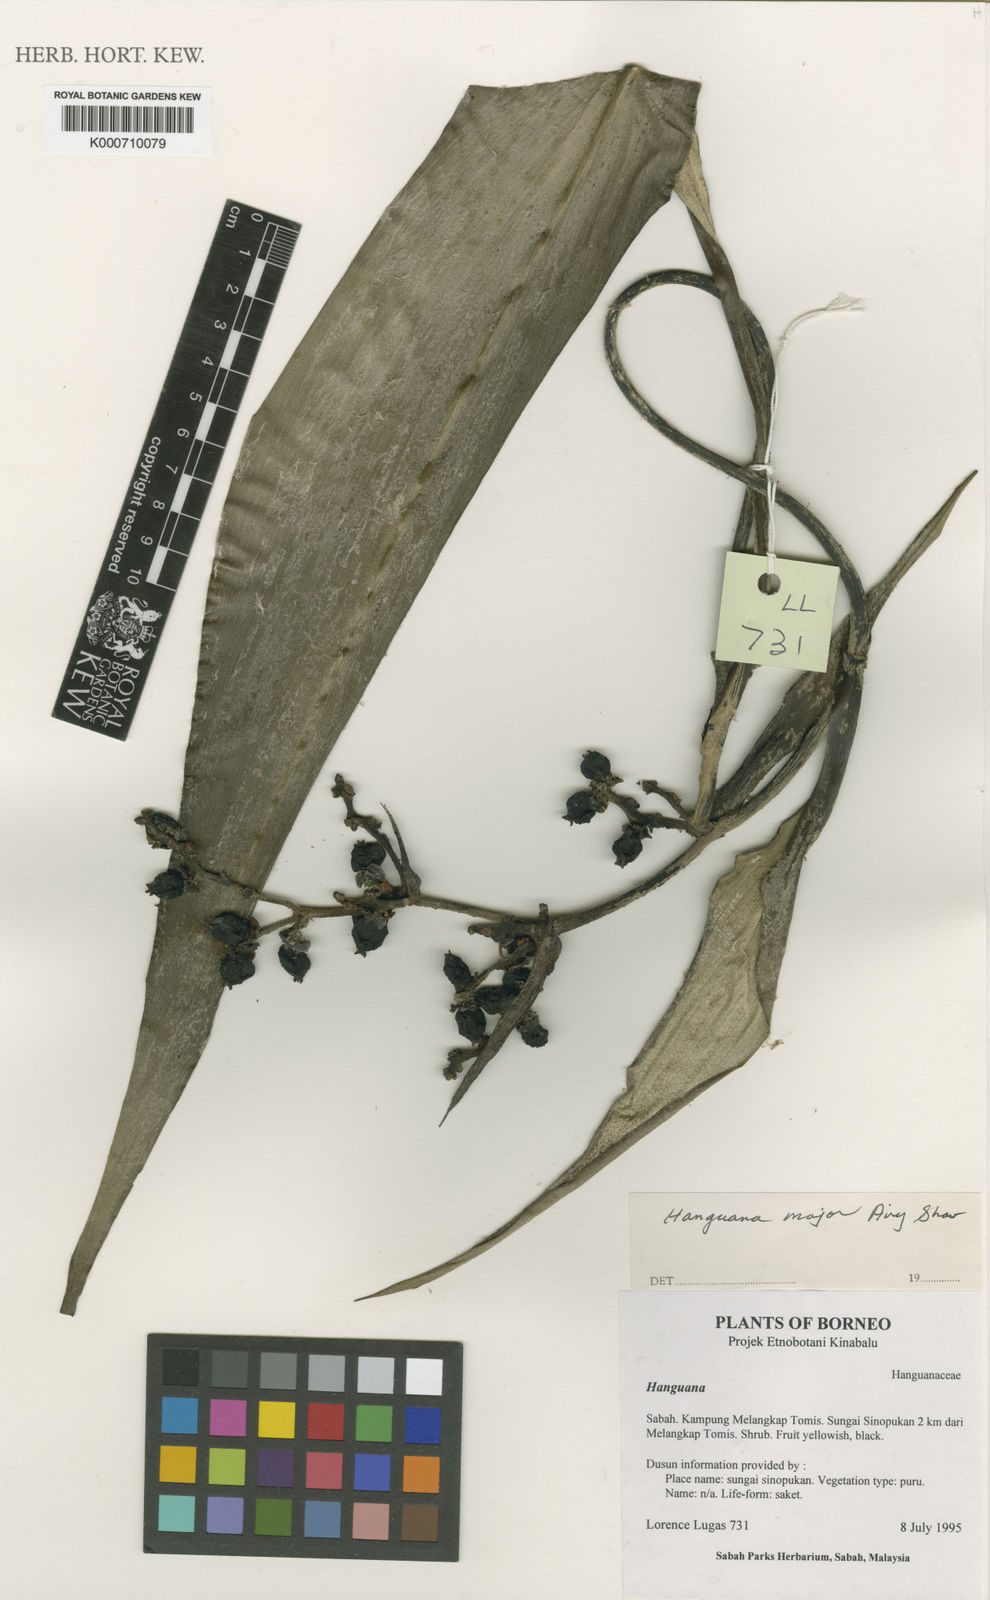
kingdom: Plantae
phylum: Tracheophyta
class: Liliopsida
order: Commelinales
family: Hanguanaceae
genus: Hanguana
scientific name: Hanguana major
